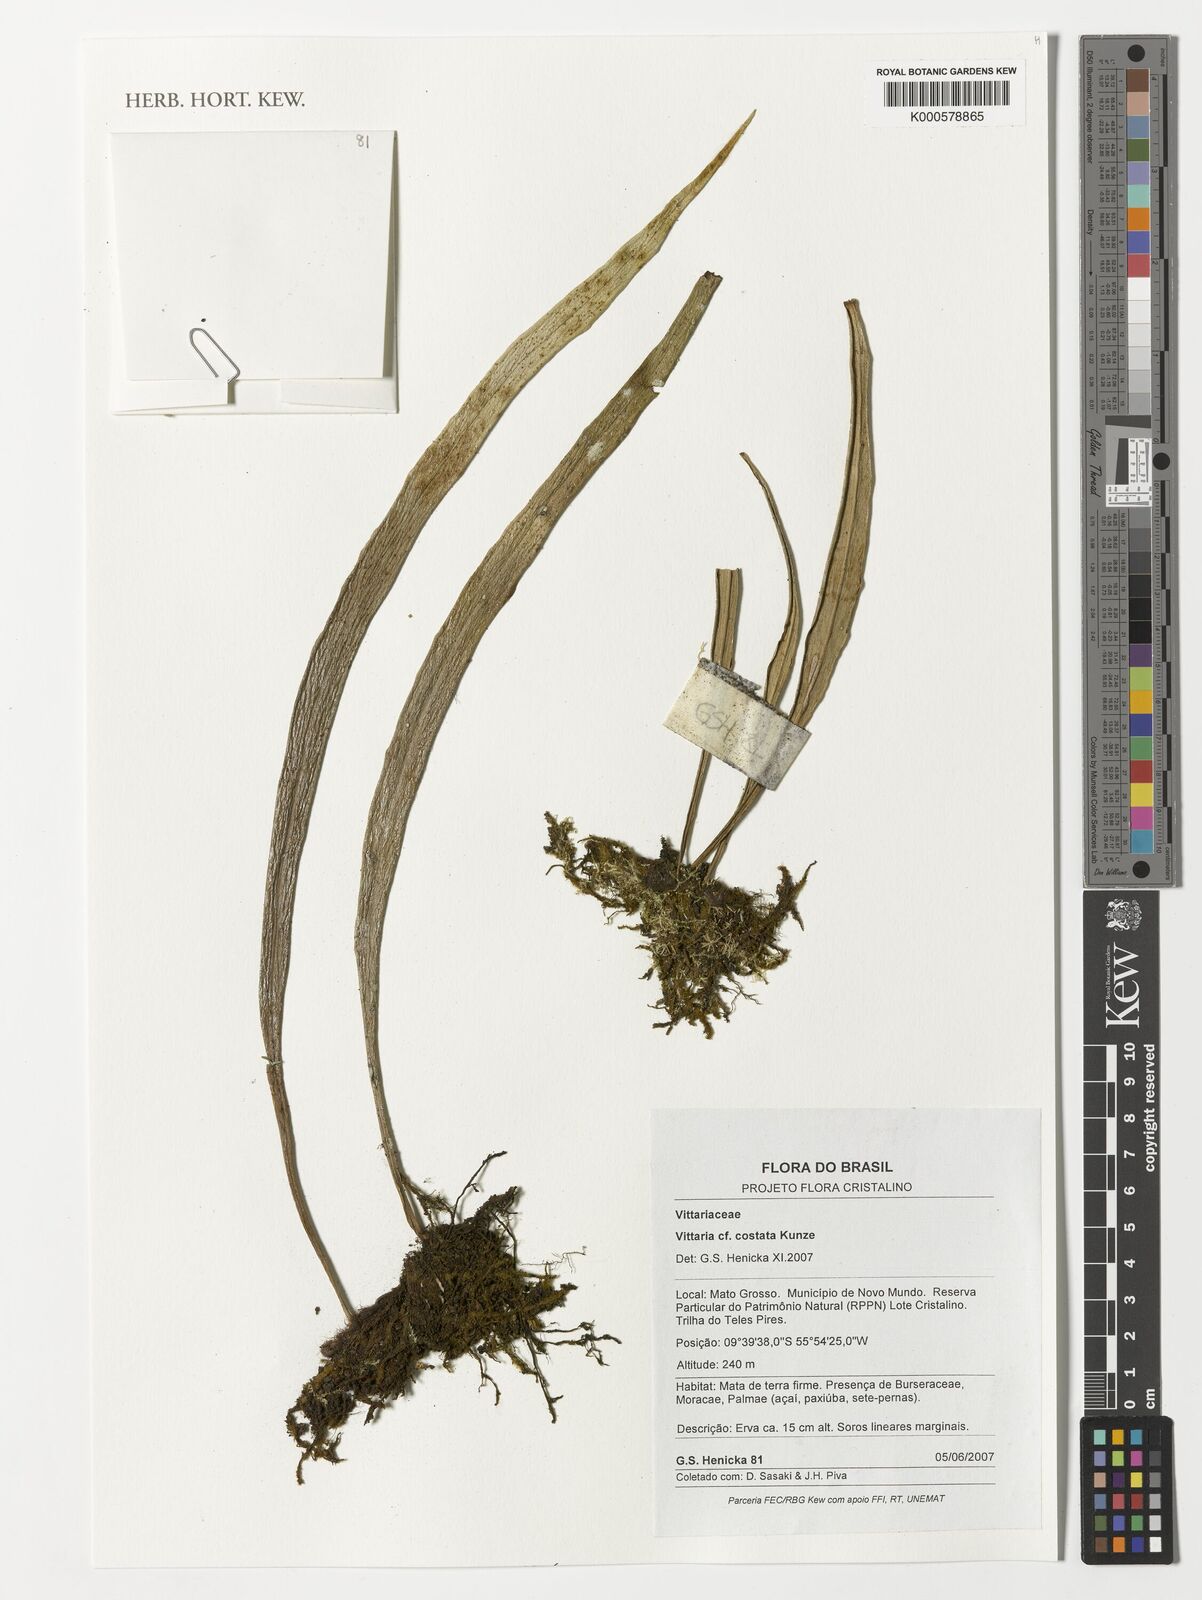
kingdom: Plantae
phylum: Tracheophyta
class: Polypodiopsida
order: Polypodiales
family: Pteridaceae
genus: Ananthacorus
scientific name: Ananthacorus angustifolius
